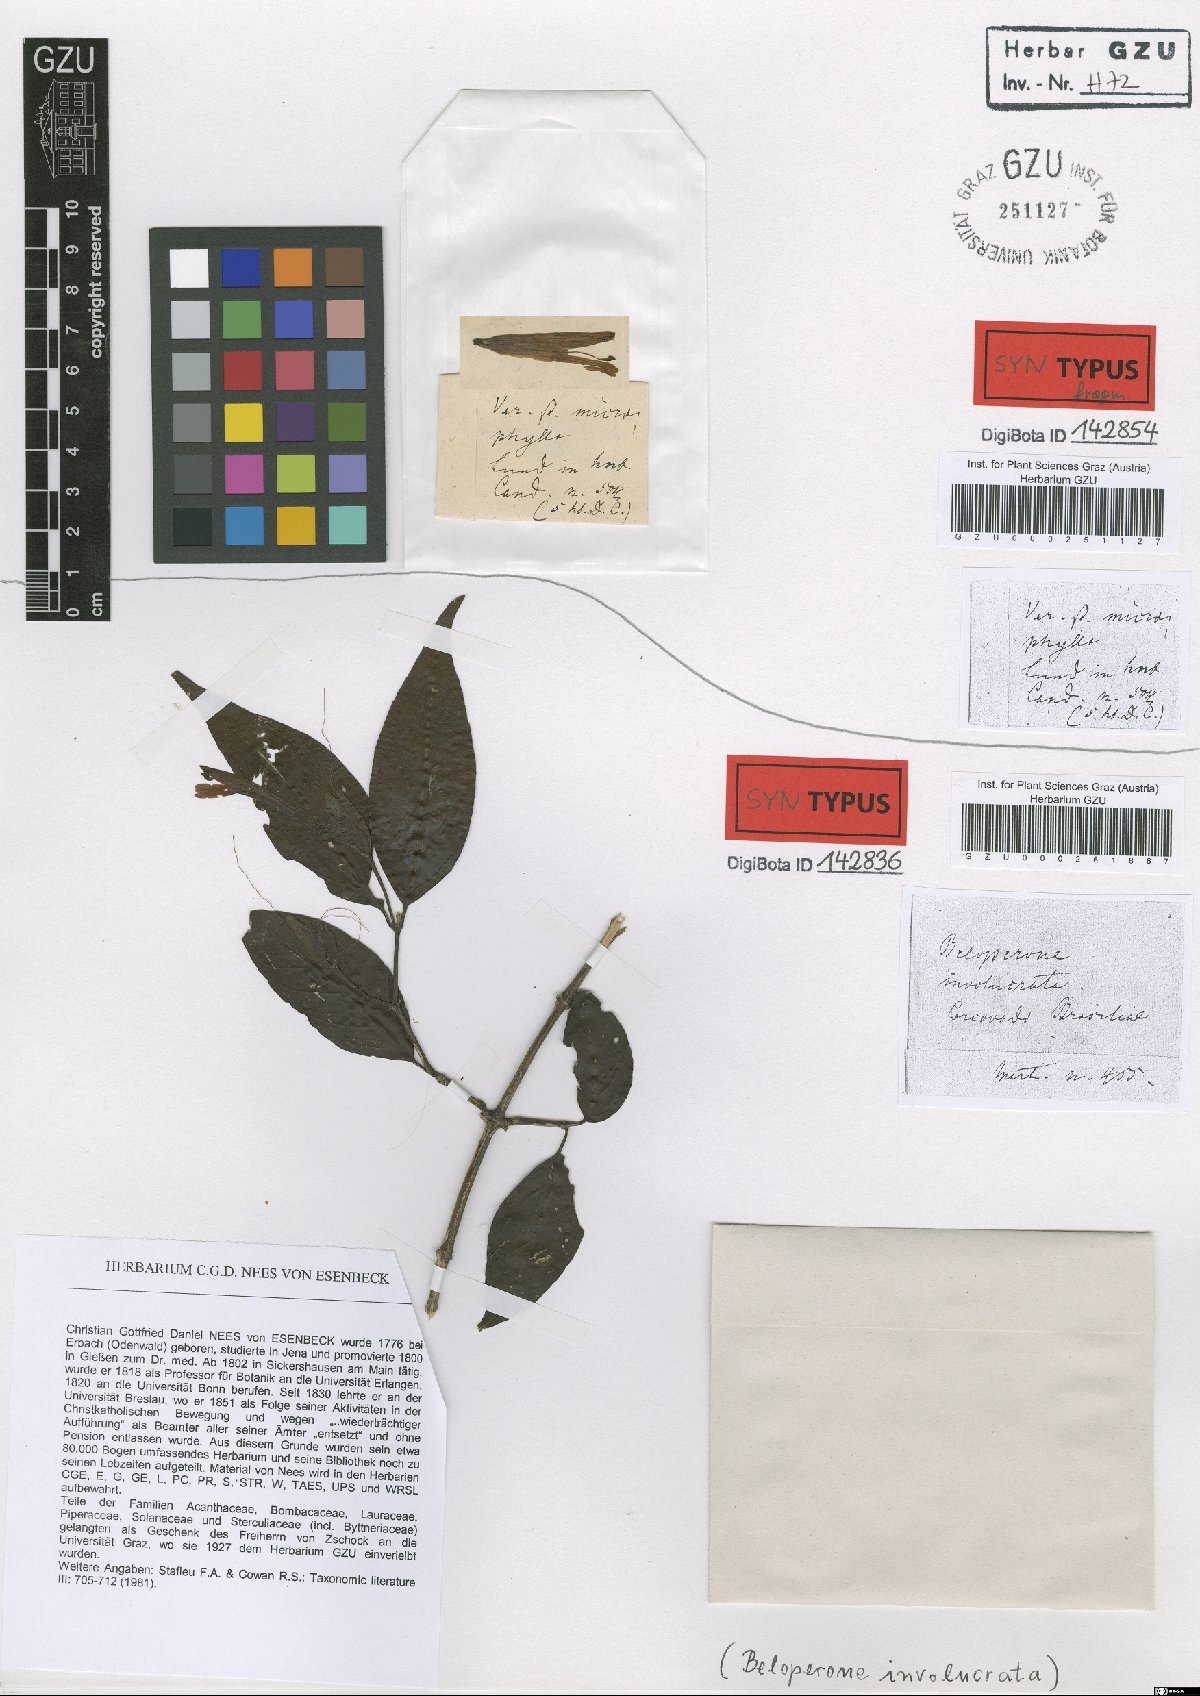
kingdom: Plantae
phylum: Tracheophyta
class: Magnoliopsida
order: Lamiales
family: Acanthaceae
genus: Justicia
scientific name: Justicia involucrata
